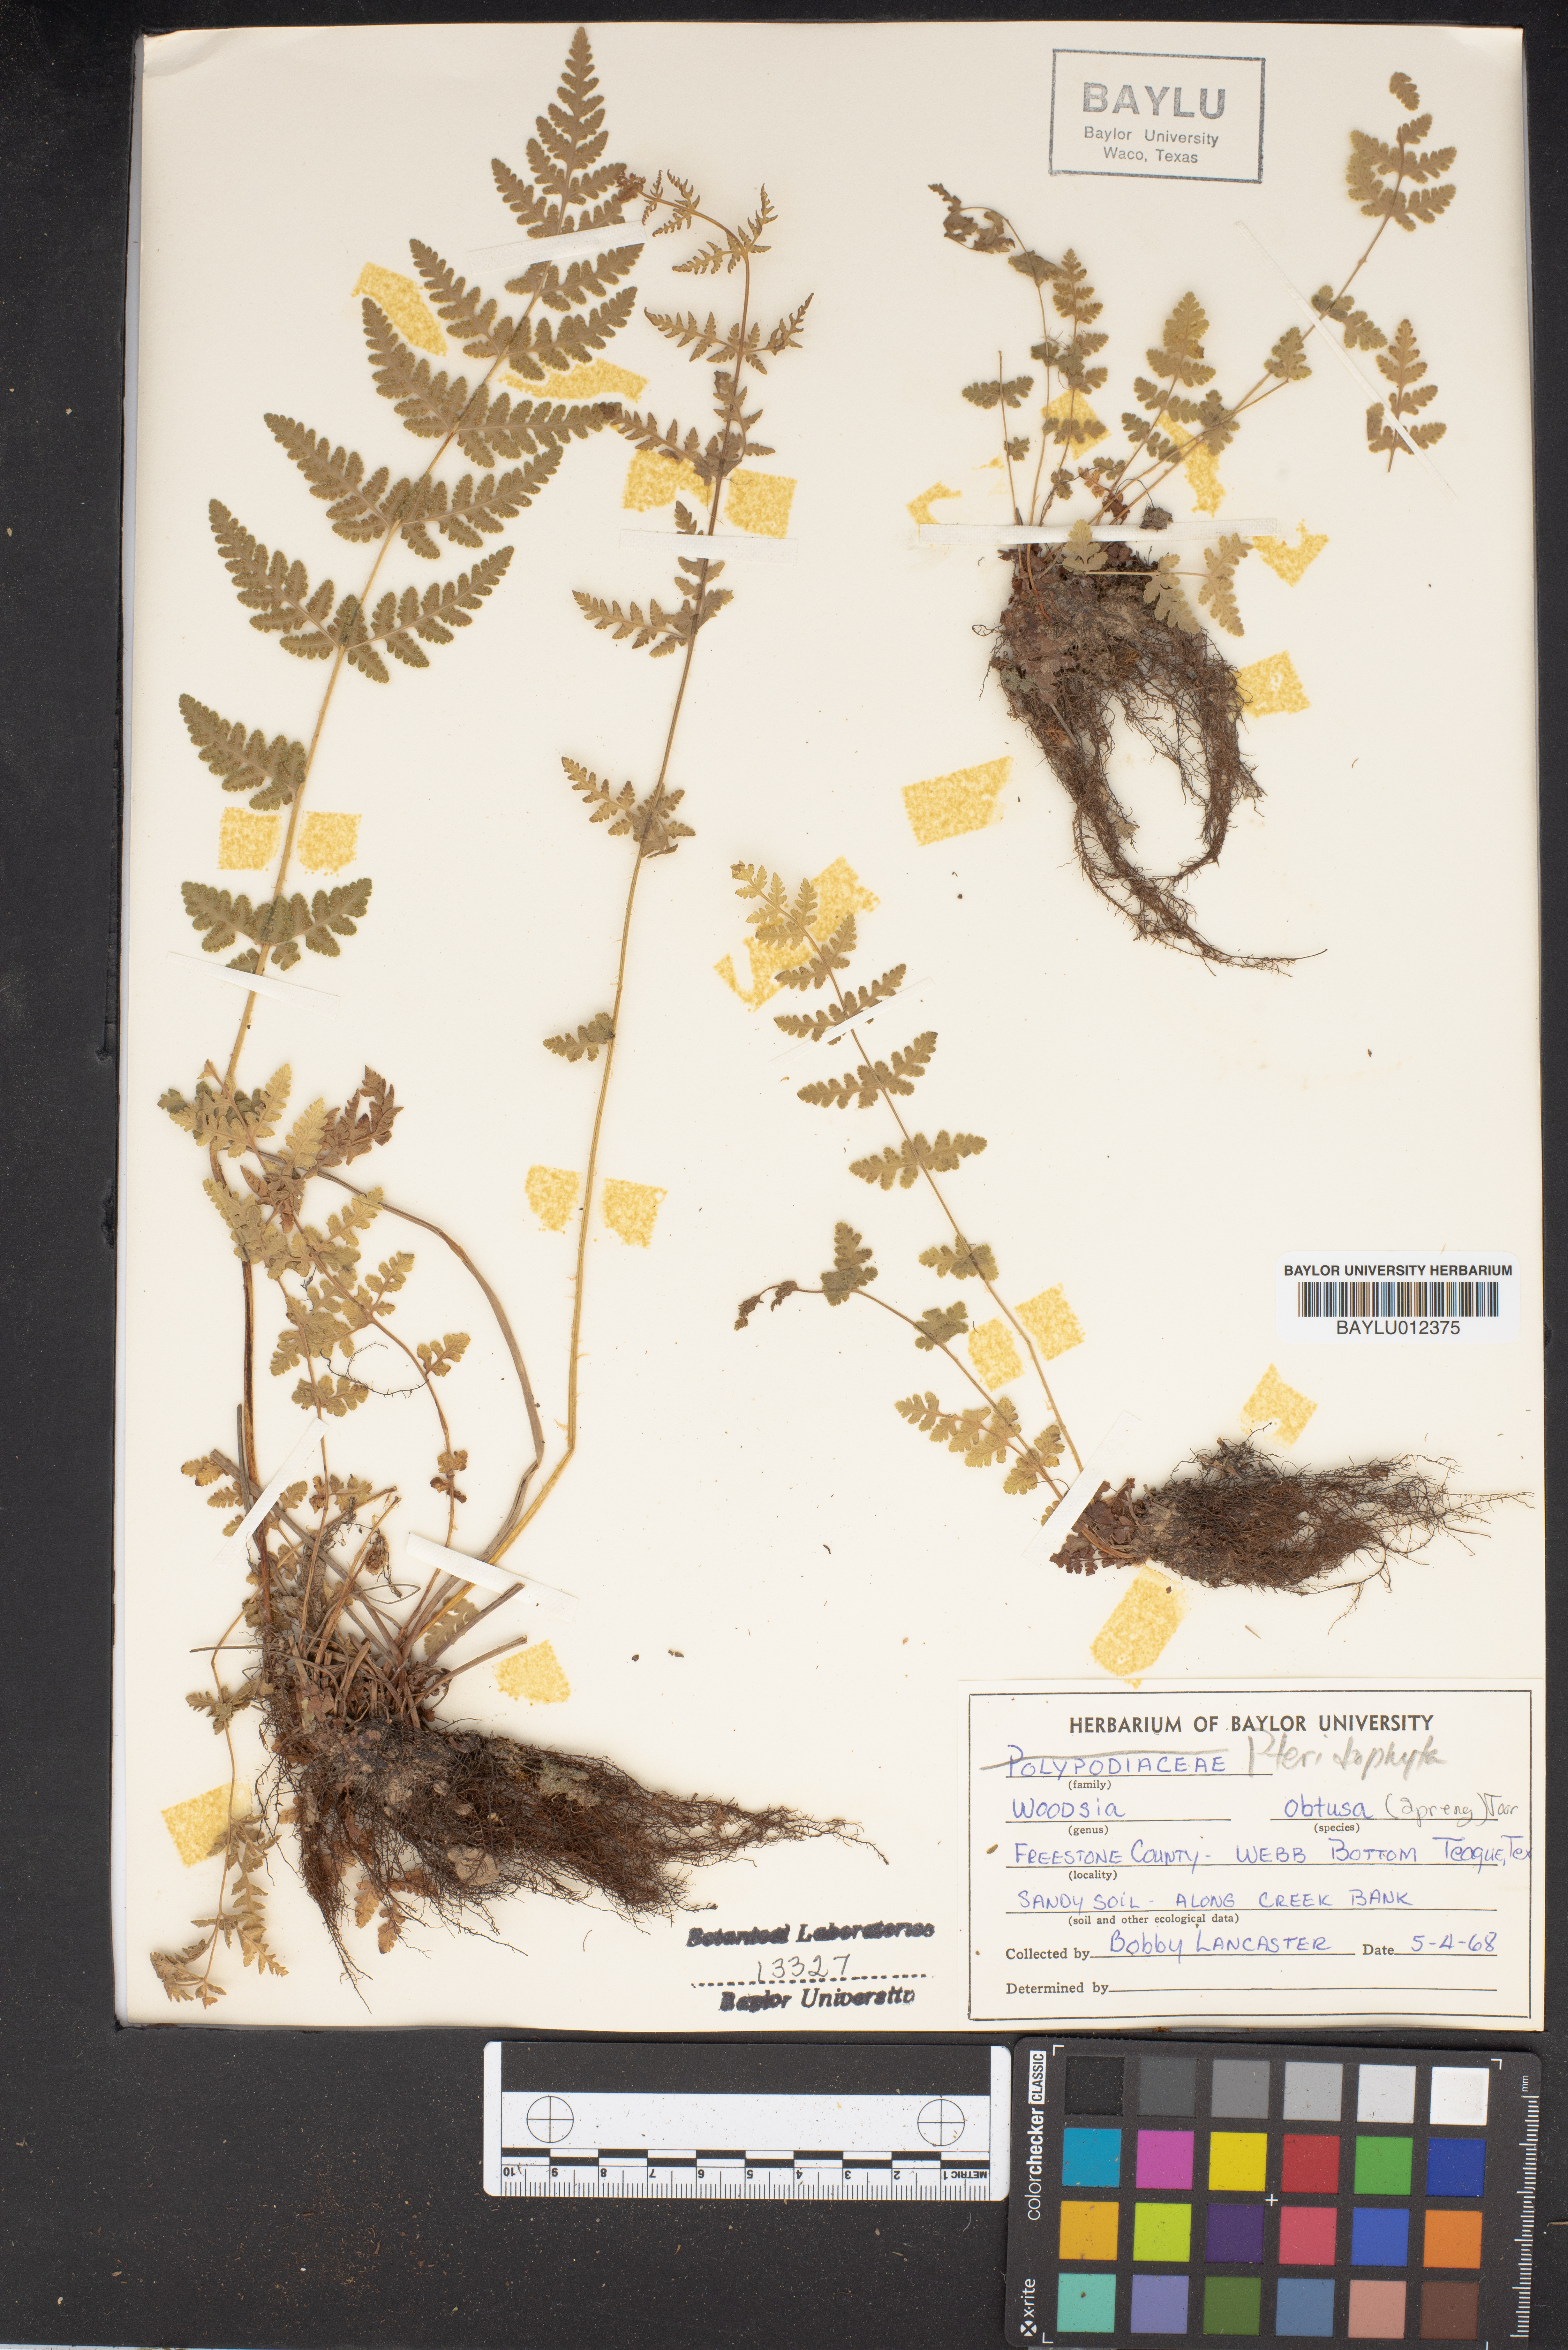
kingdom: Plantae
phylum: Tracheophyta
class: Polypodiopsida
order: Polypodiales
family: Woodsiaceae
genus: Physematium
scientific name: Physematium obtusum
